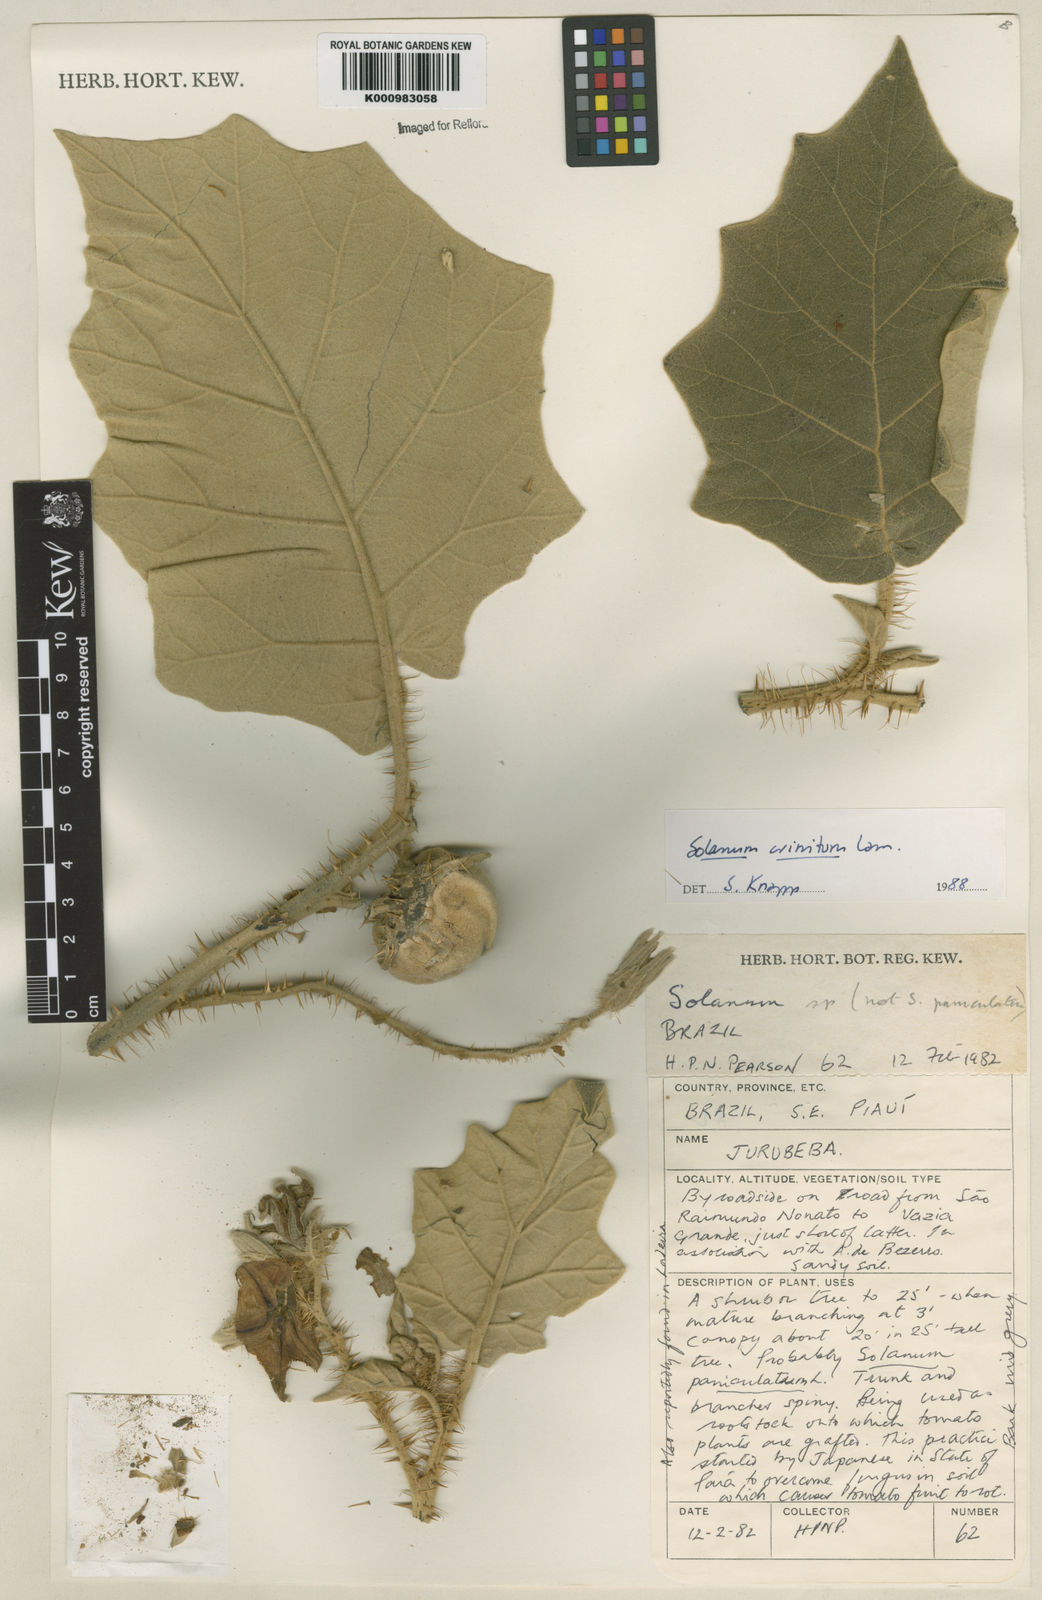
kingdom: Plantae
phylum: Tracheophyta
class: Magnoliopsida
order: Solanales
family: Solanaceae
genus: Solanum
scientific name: Solanum crinitum
